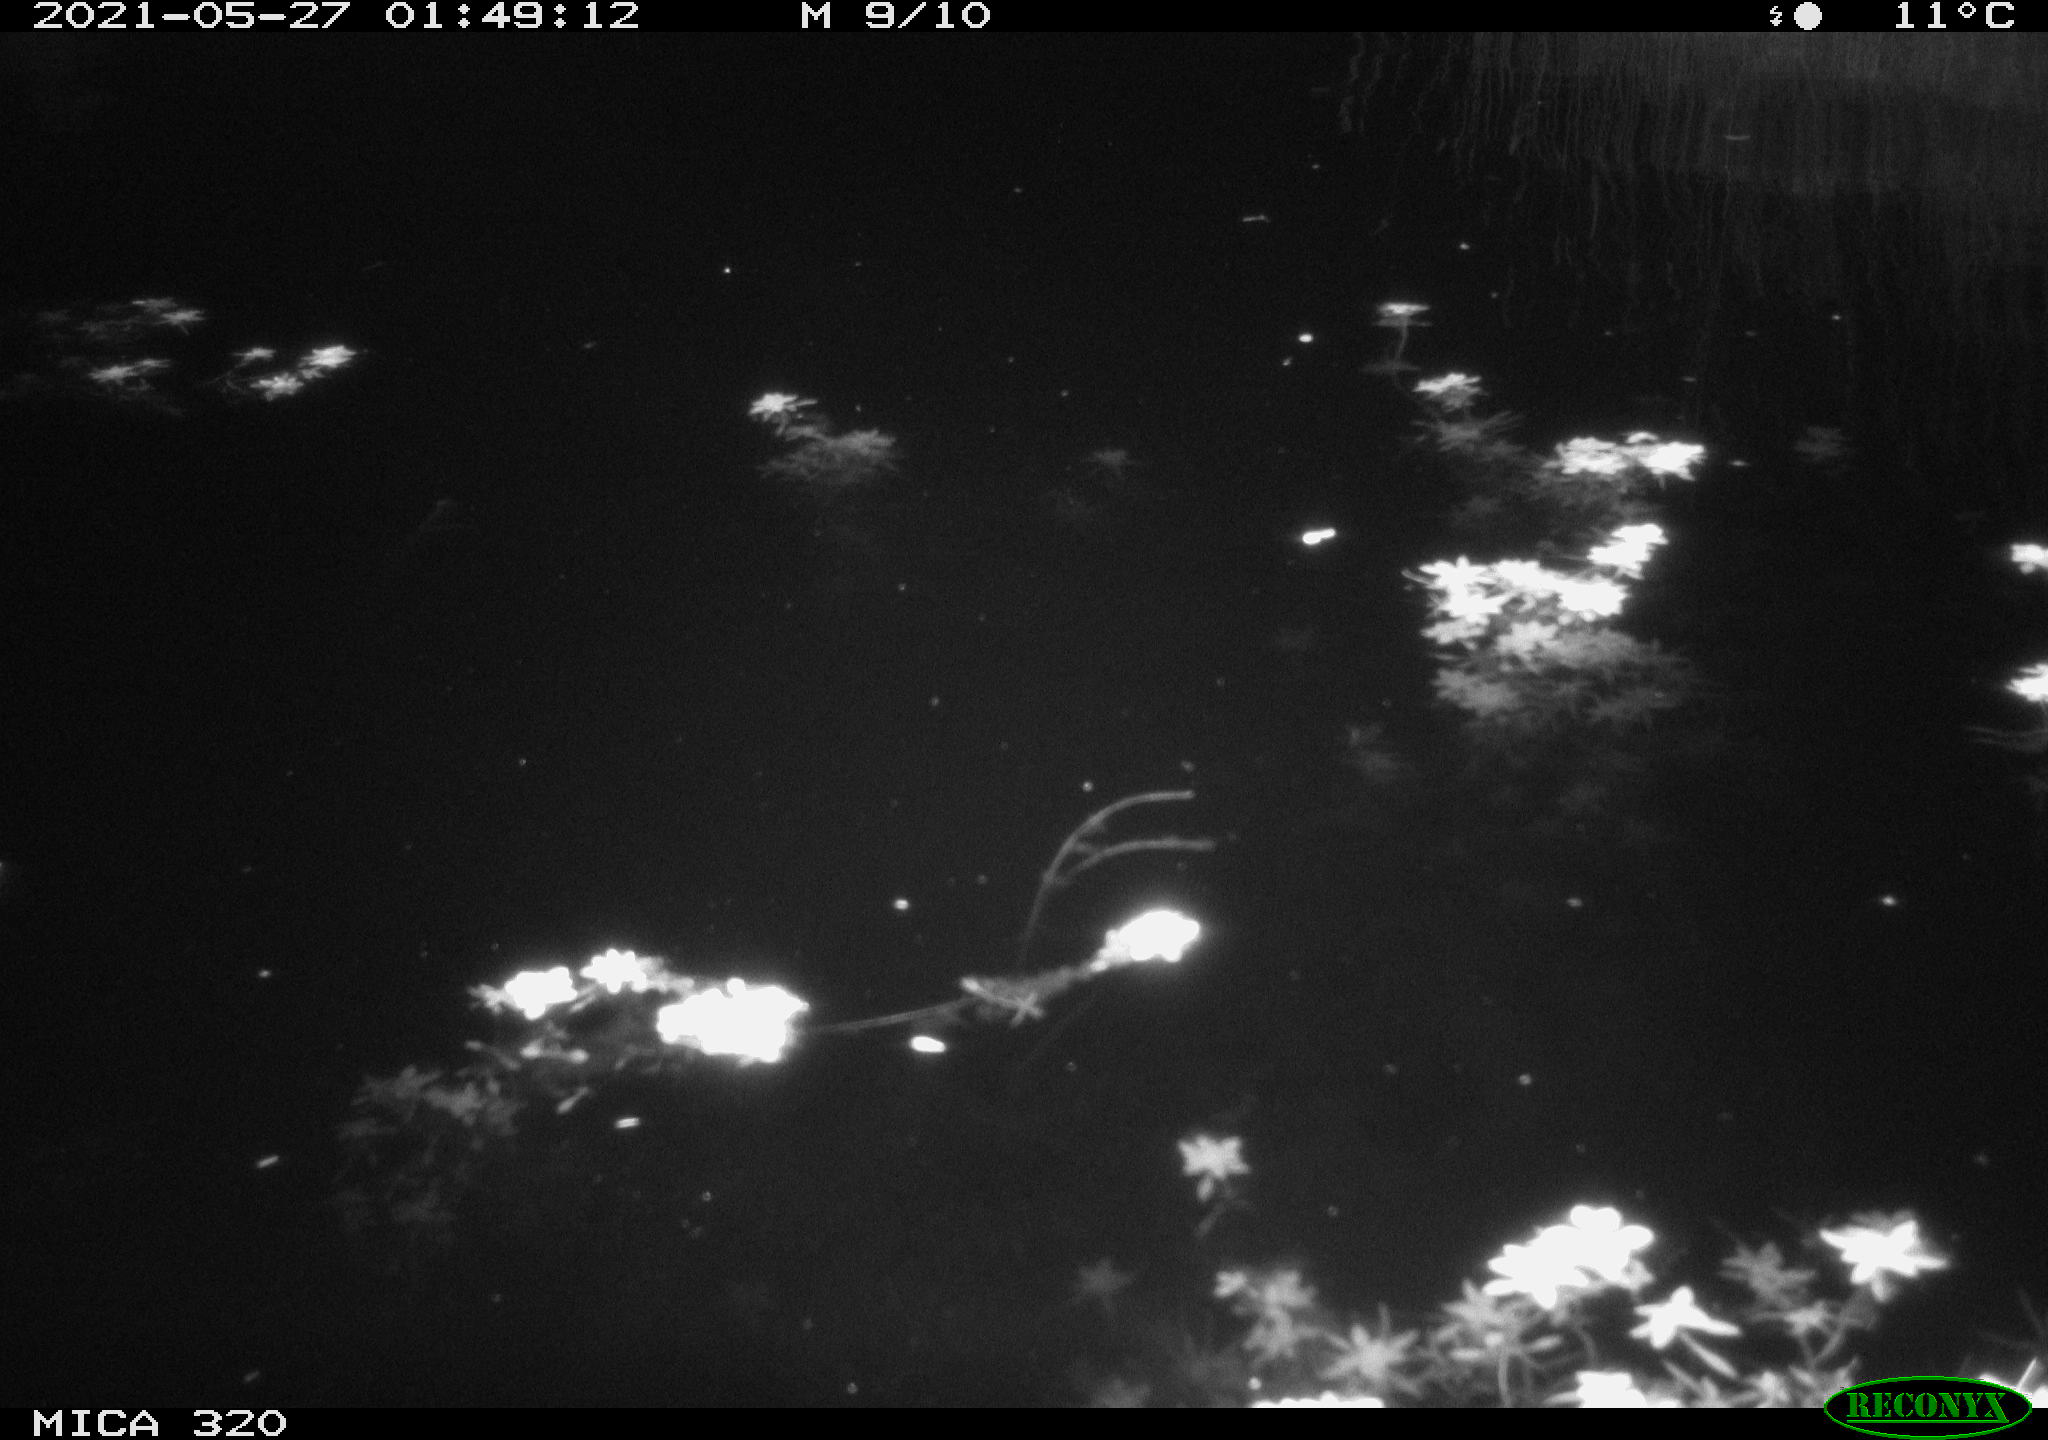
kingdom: Animalia
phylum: Chordata
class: Aves
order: Anseriformes
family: Anatidae
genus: Anas
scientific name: Anas platyrhynchos
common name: Mallard
